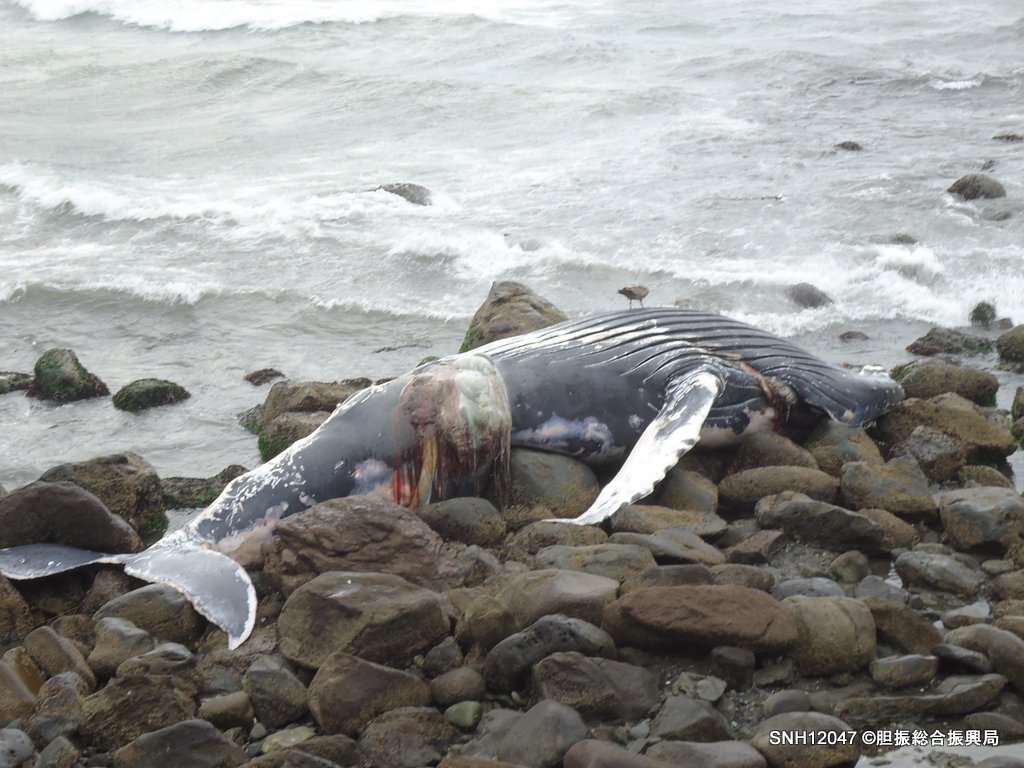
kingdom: Animalia
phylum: Chordata
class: Mammalia
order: Cetacea
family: Balaenopteridae
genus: Megaptera
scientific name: Megaptera novaeangliae
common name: Humpback whale
